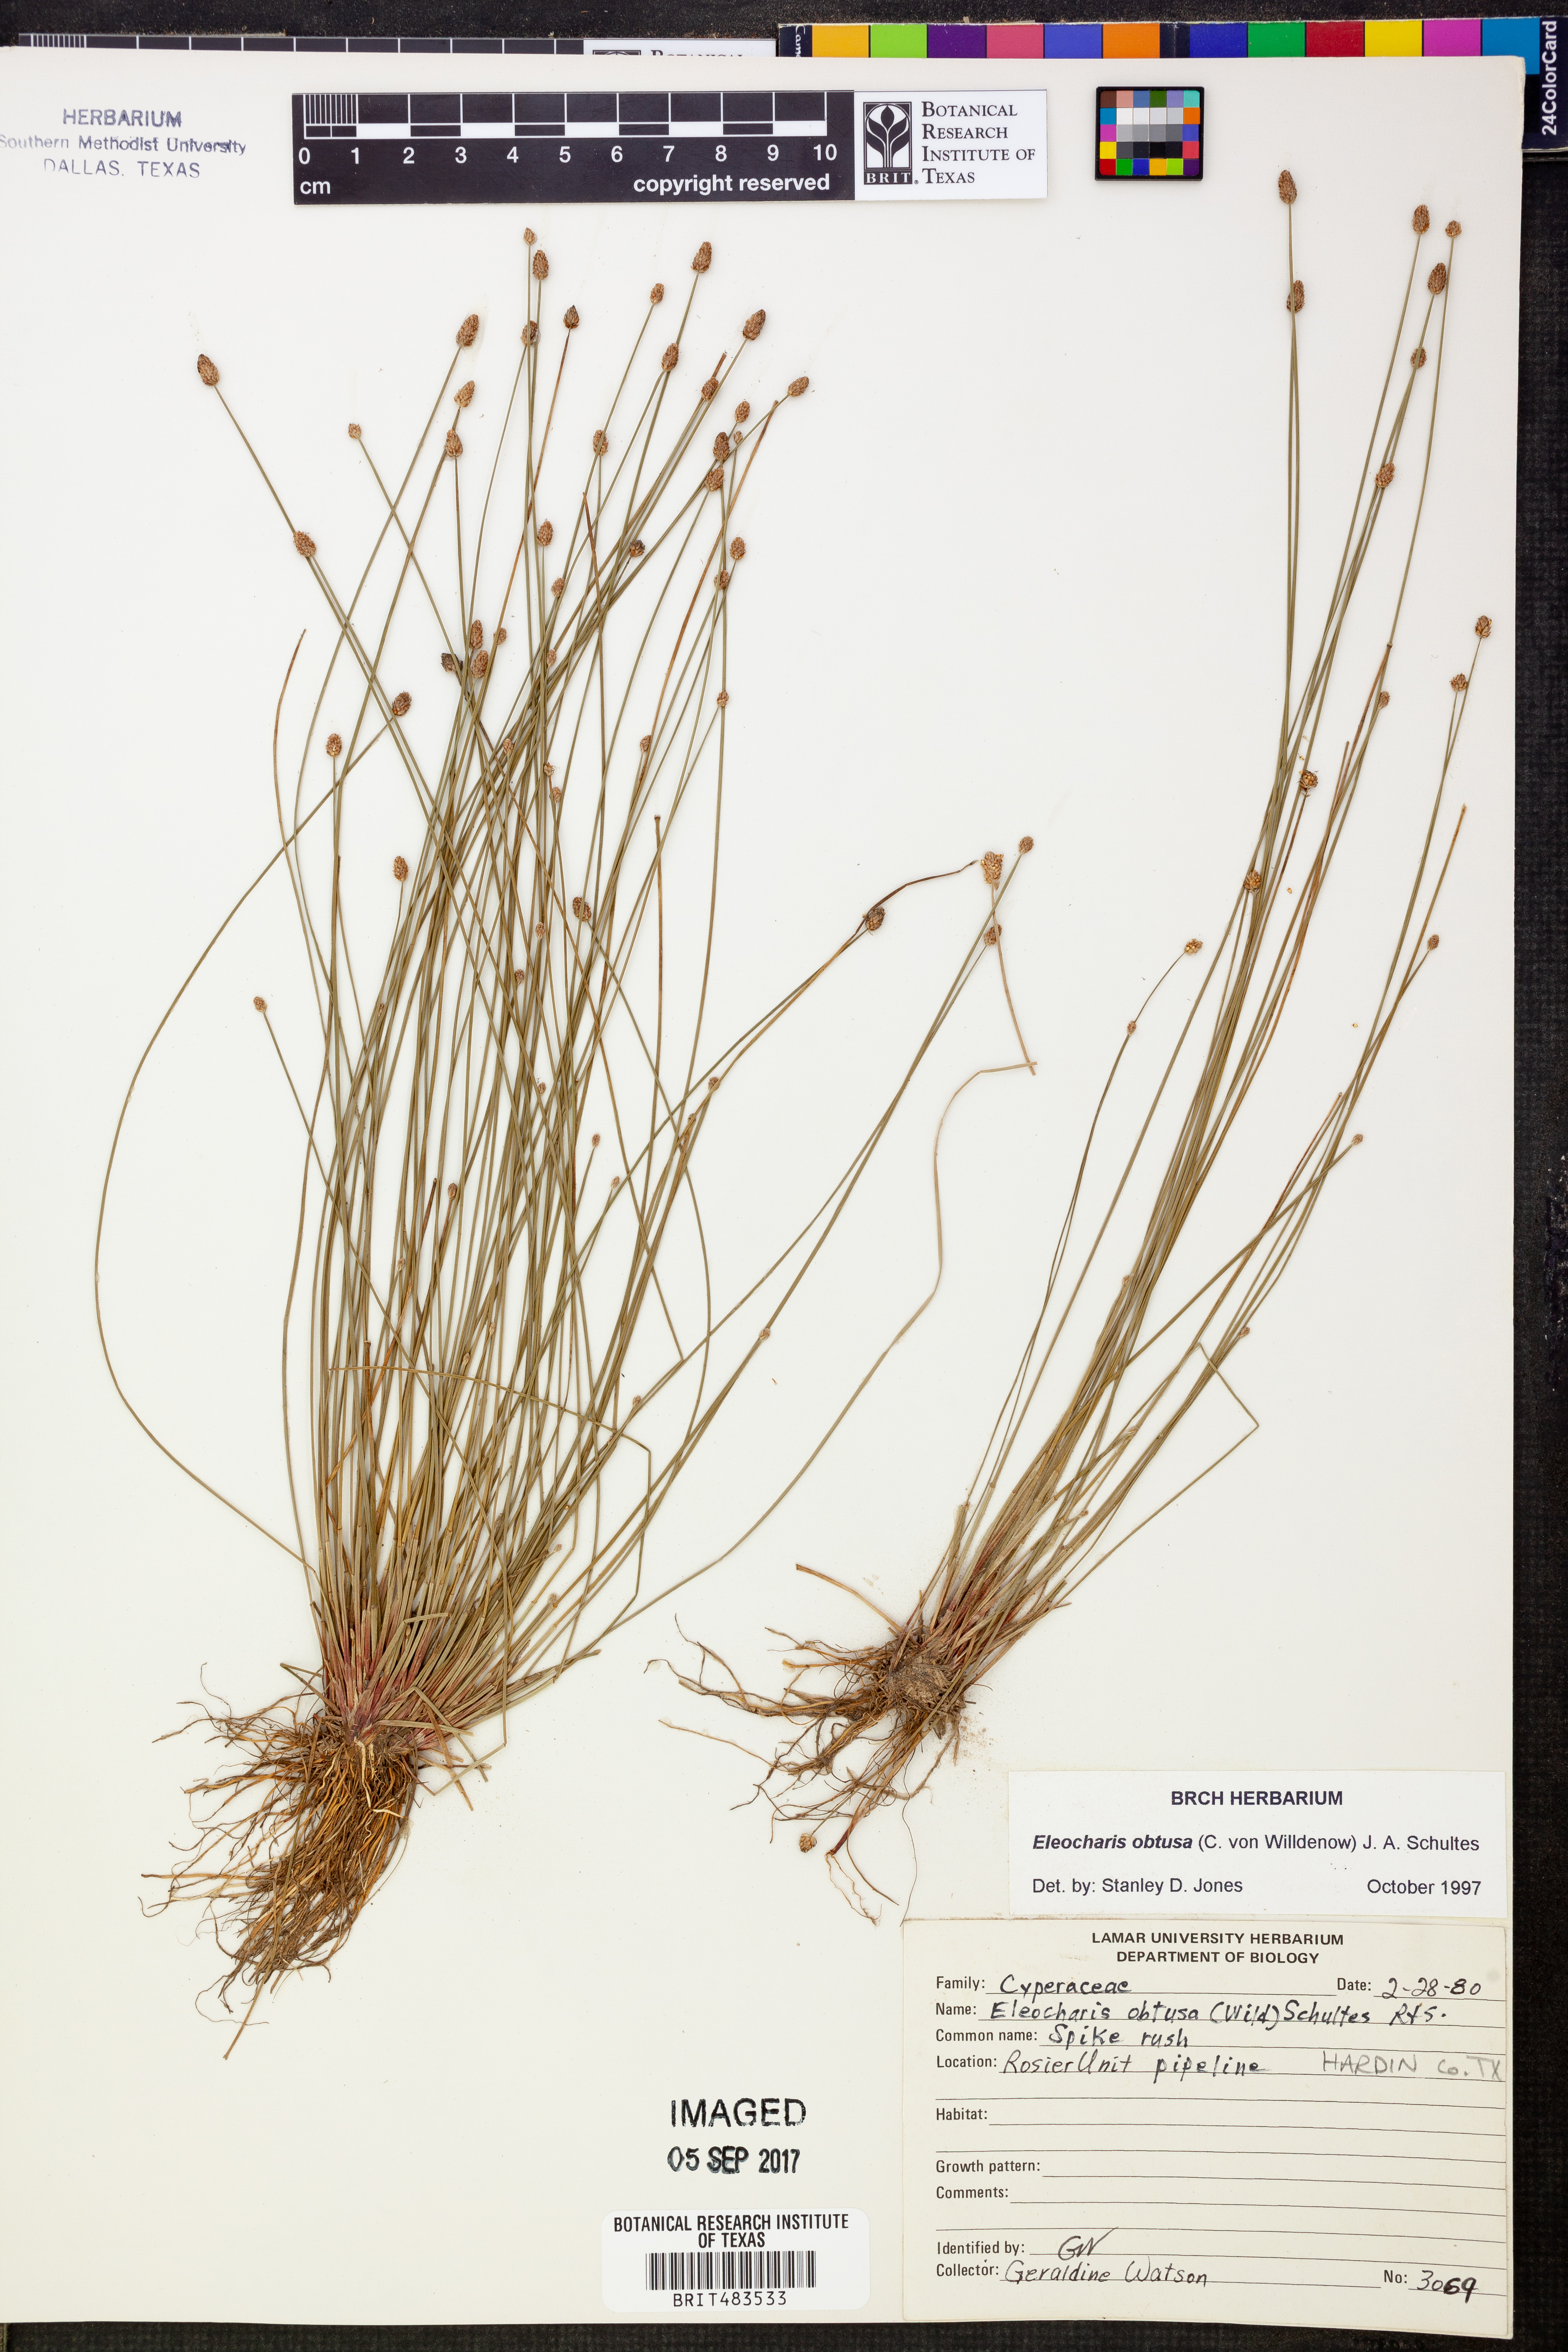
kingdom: Plantae
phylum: Tracheophyta
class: Liliopsida
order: Poales
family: Cyperaceae
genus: Eleocharis
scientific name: Eleocharis obtusa
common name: Blunt spikerush
